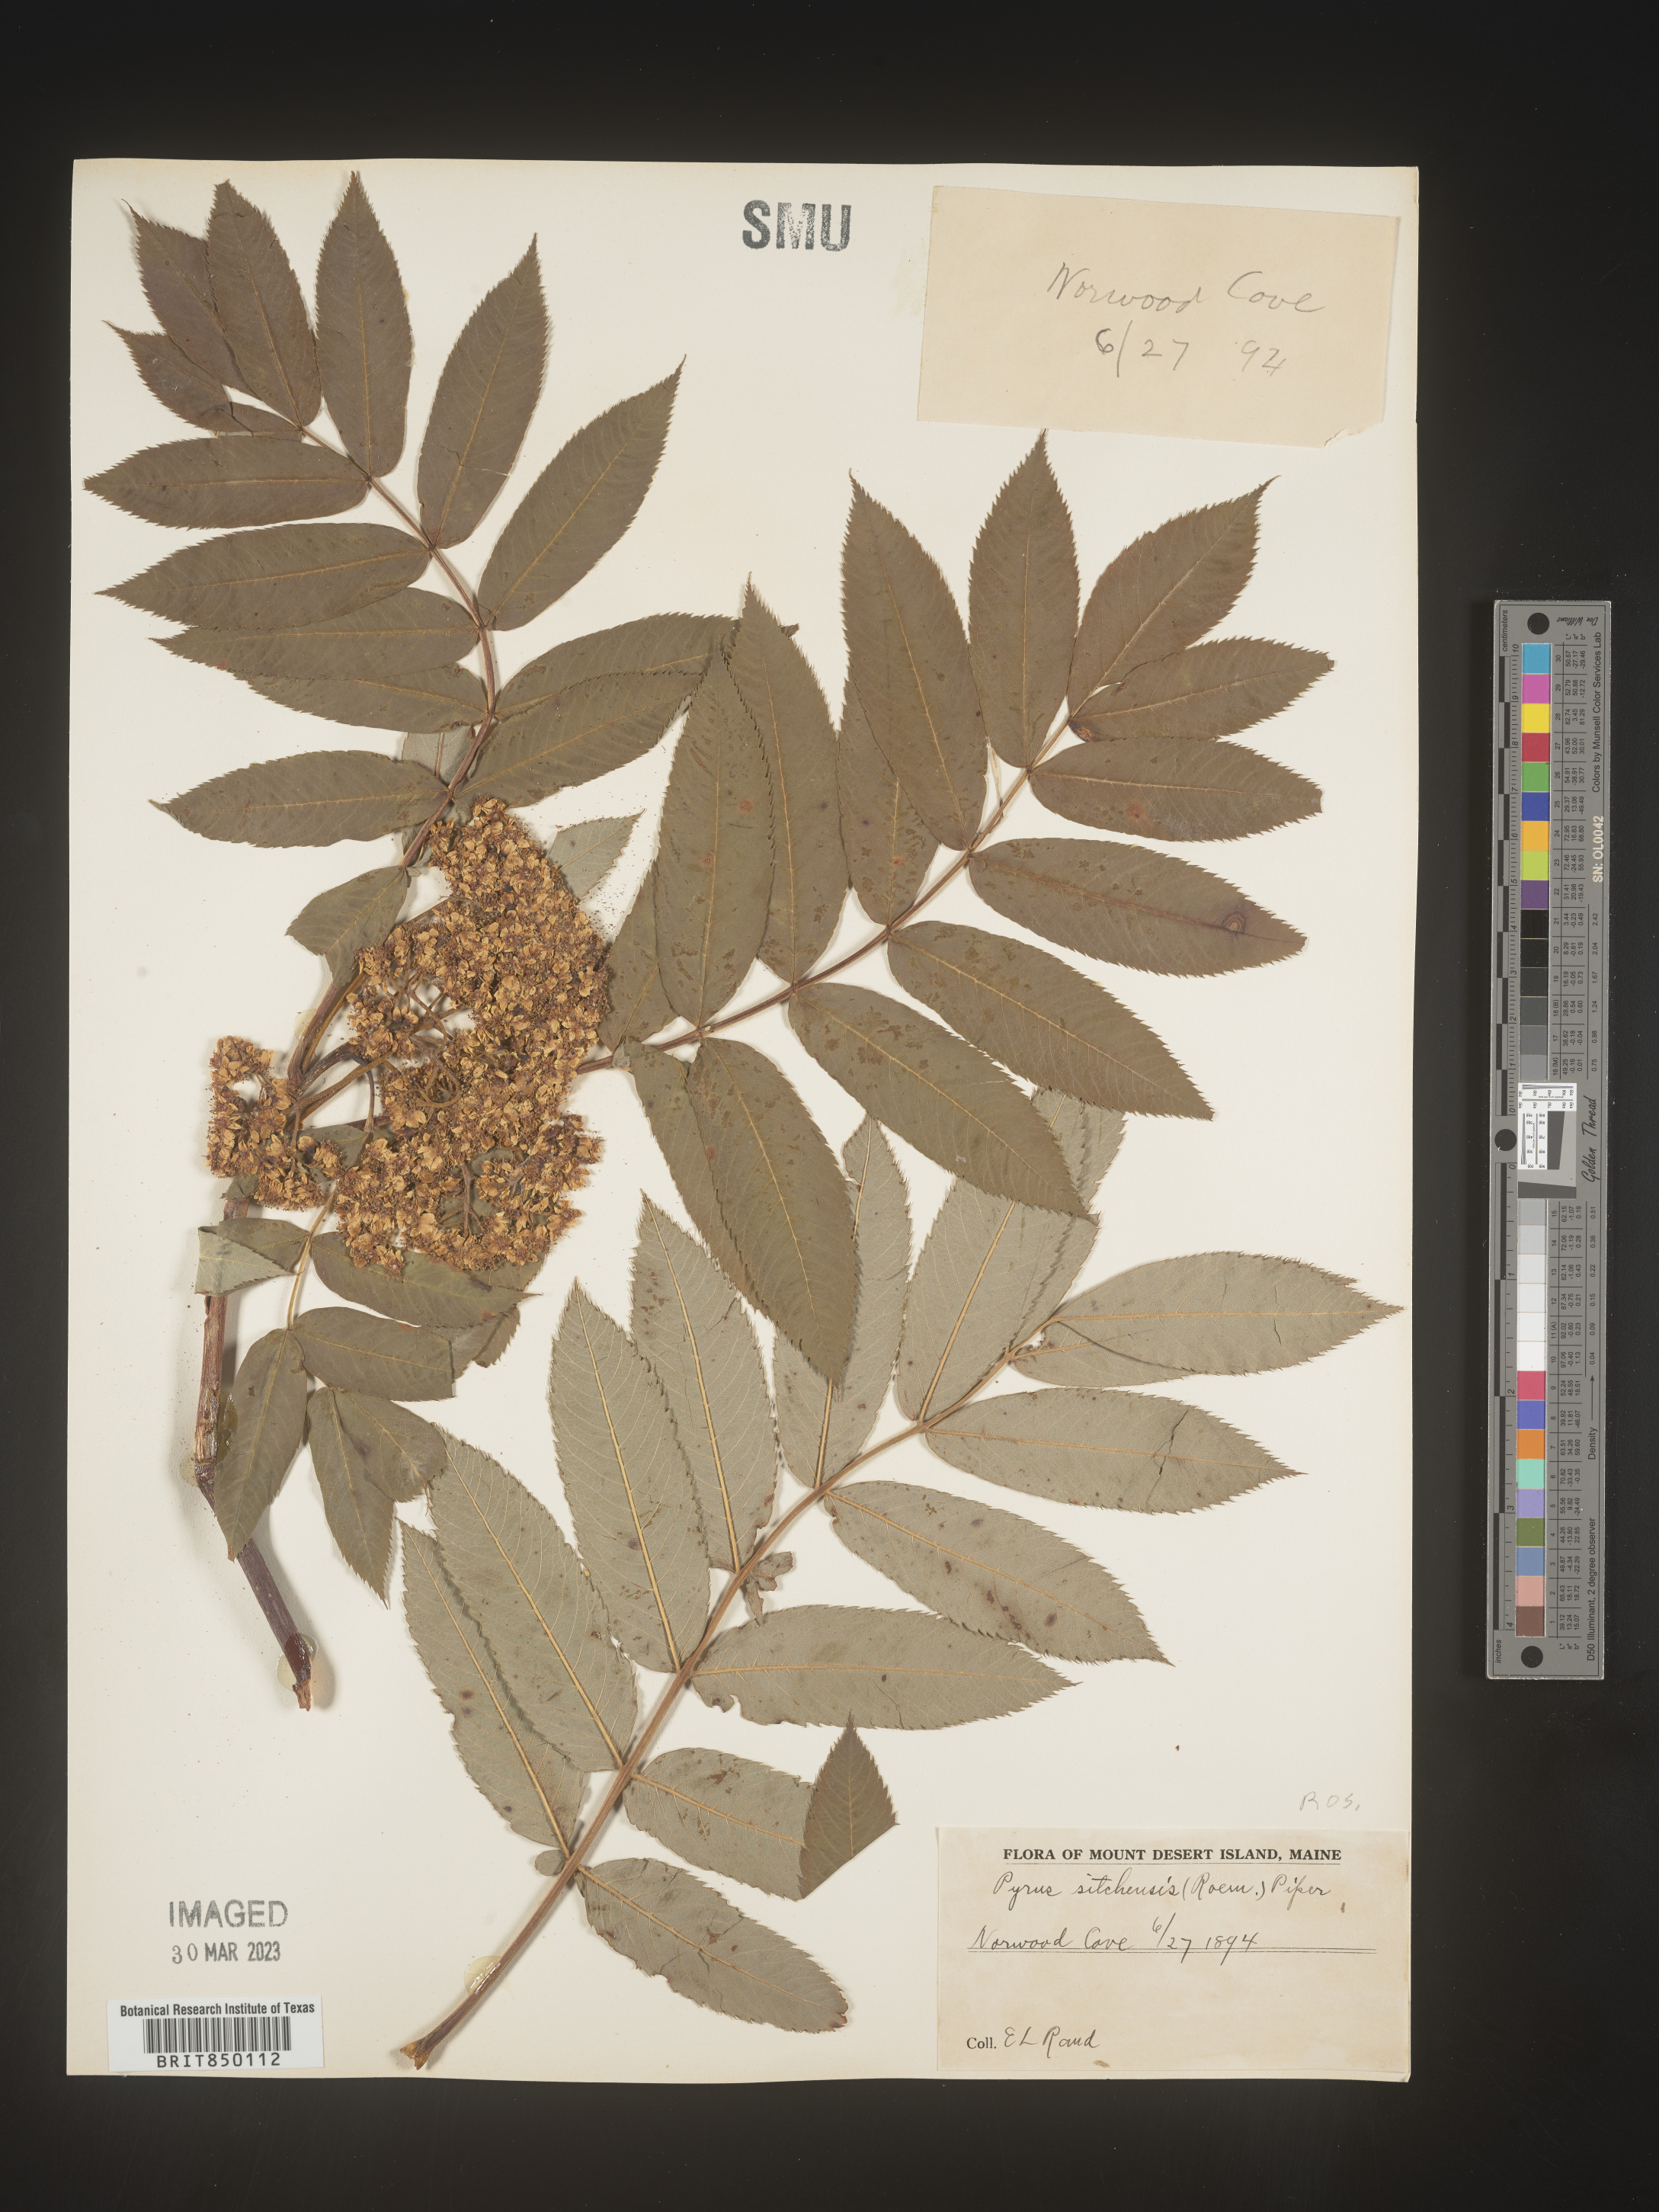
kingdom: Plantae
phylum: Tracheophyta
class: Magnoliopsida
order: Rosales
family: Rosaceae
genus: Sorbus
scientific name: Sorbus
